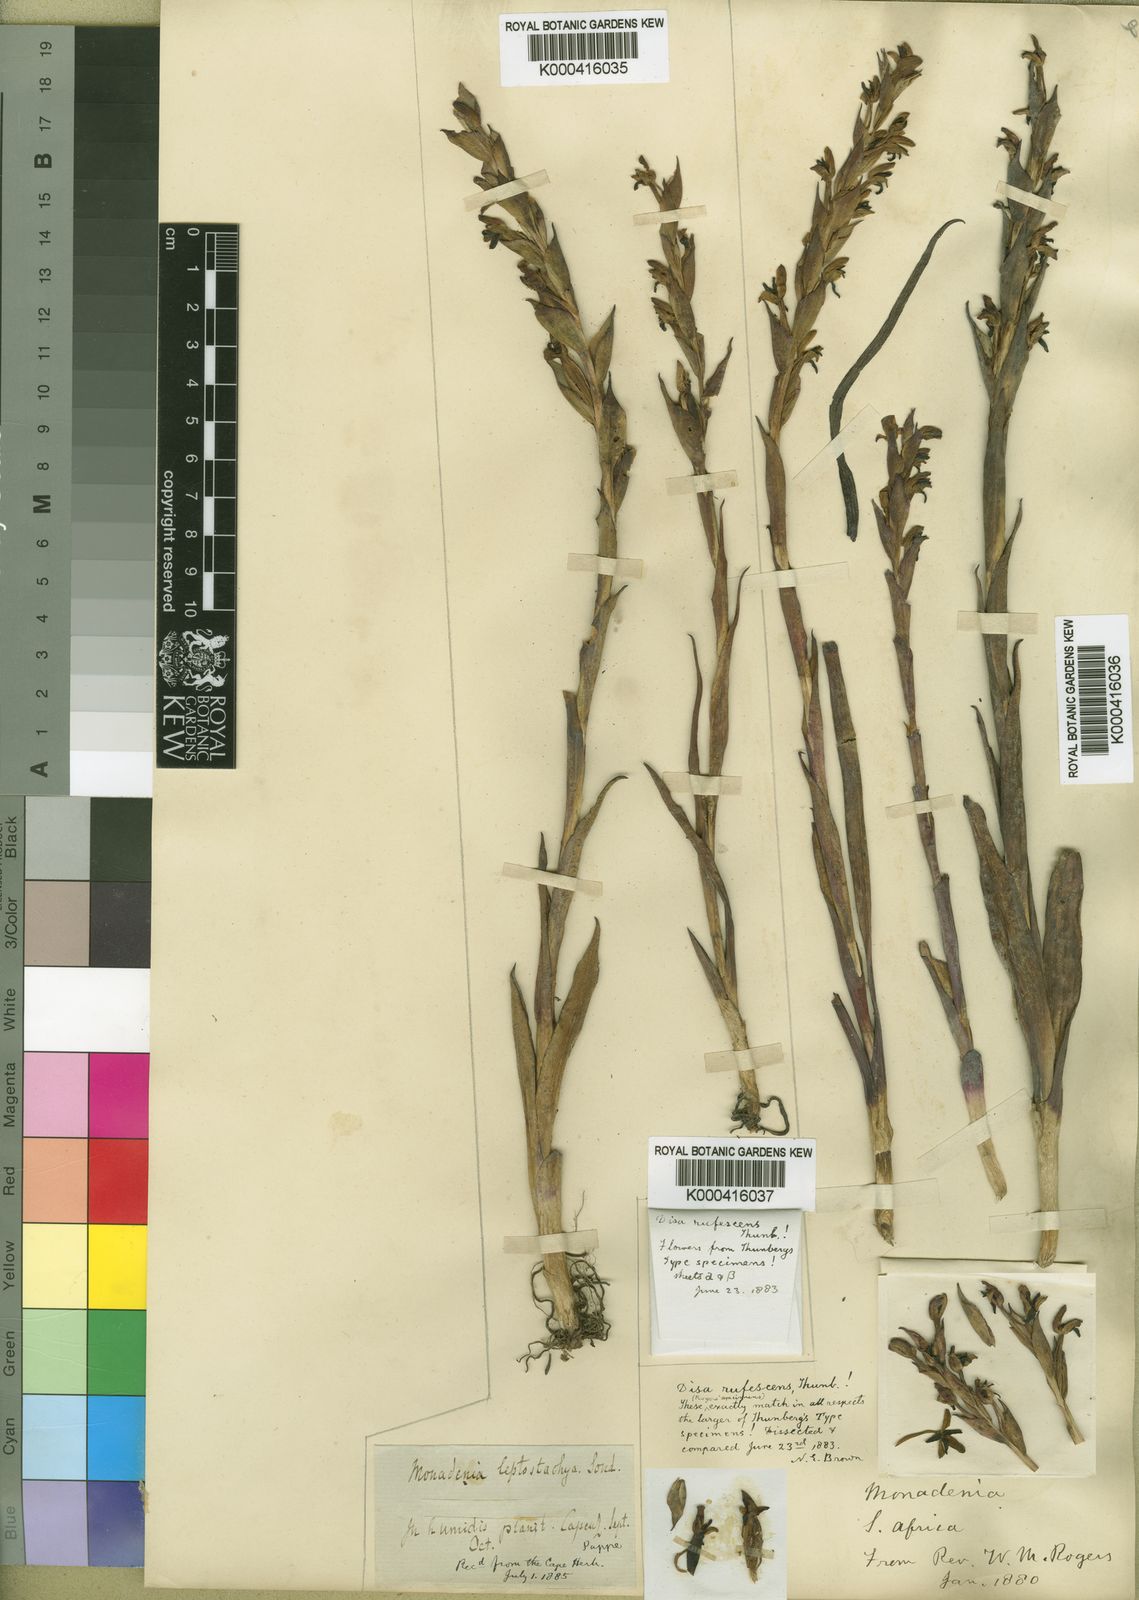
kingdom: Plantae
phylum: Tracheophyta
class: Liliopsida
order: Asparagales
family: Orchidaceae
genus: Disa
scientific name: Disa rufescens
